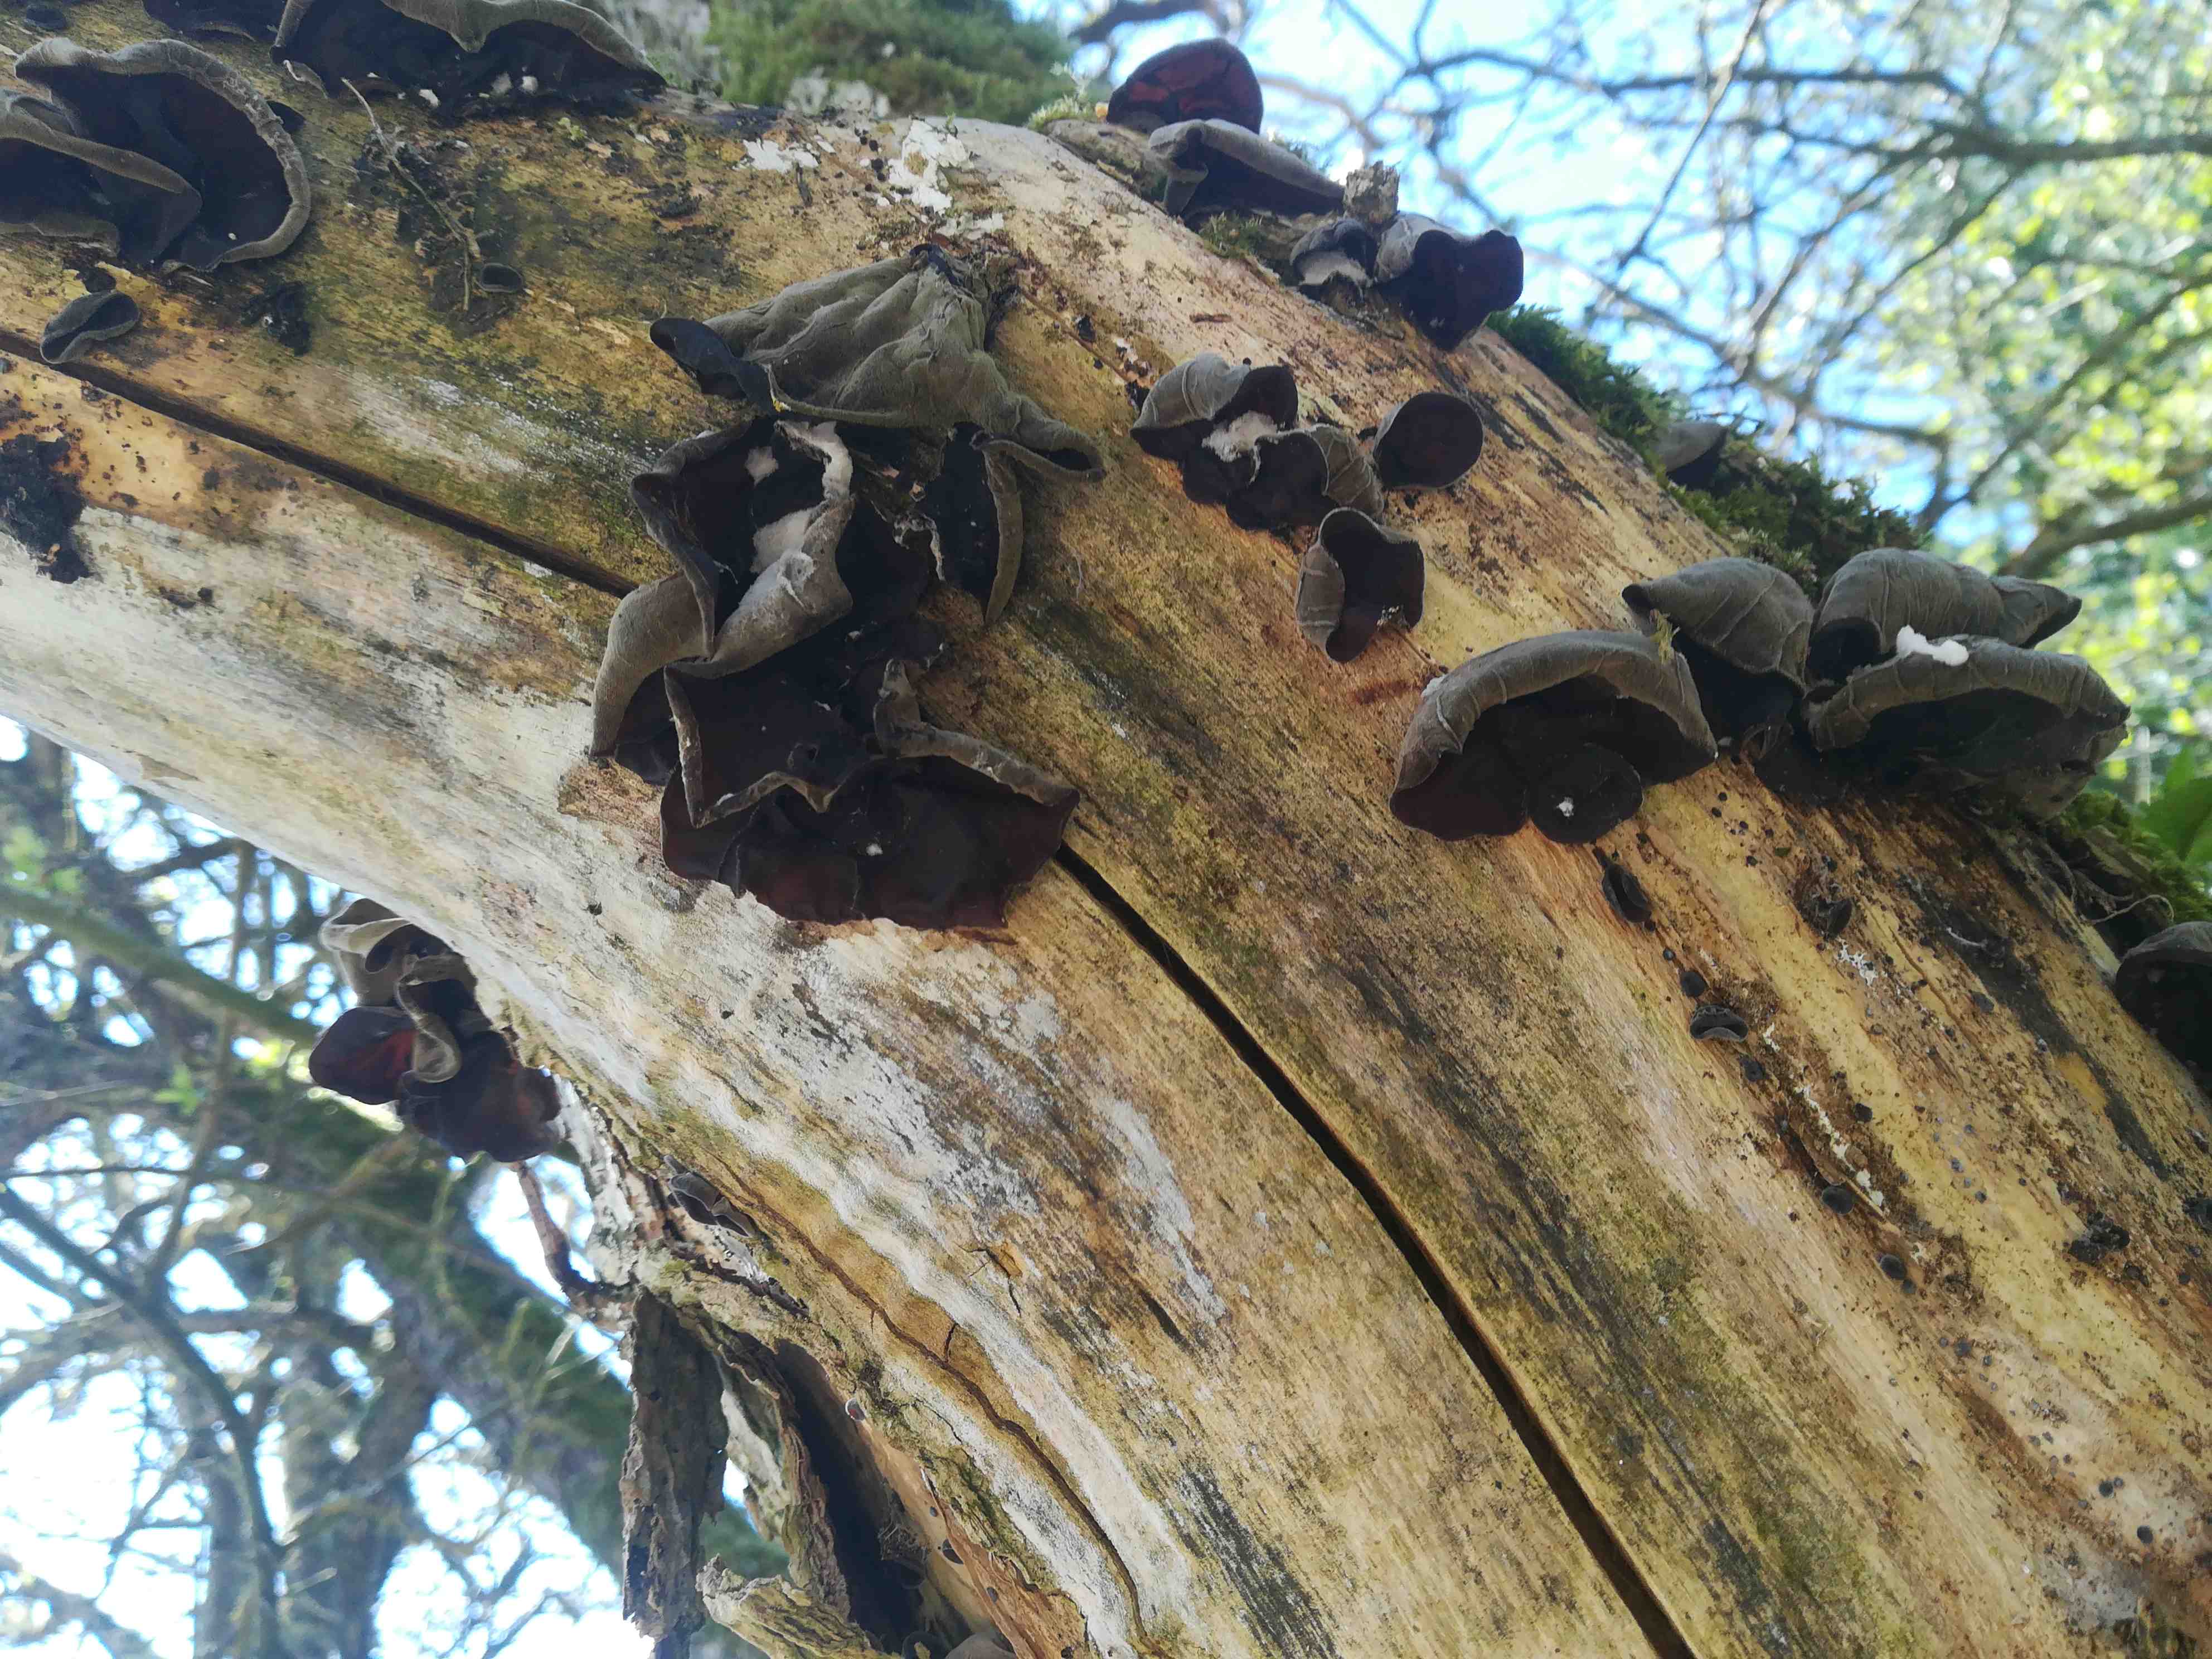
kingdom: Fungi
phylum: Basidiomycota
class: Agaricomycetes
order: Auriculariales
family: Auriculariaceae
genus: Auricularia
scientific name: Auricularia auricula-judae
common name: almindelig judasøre
